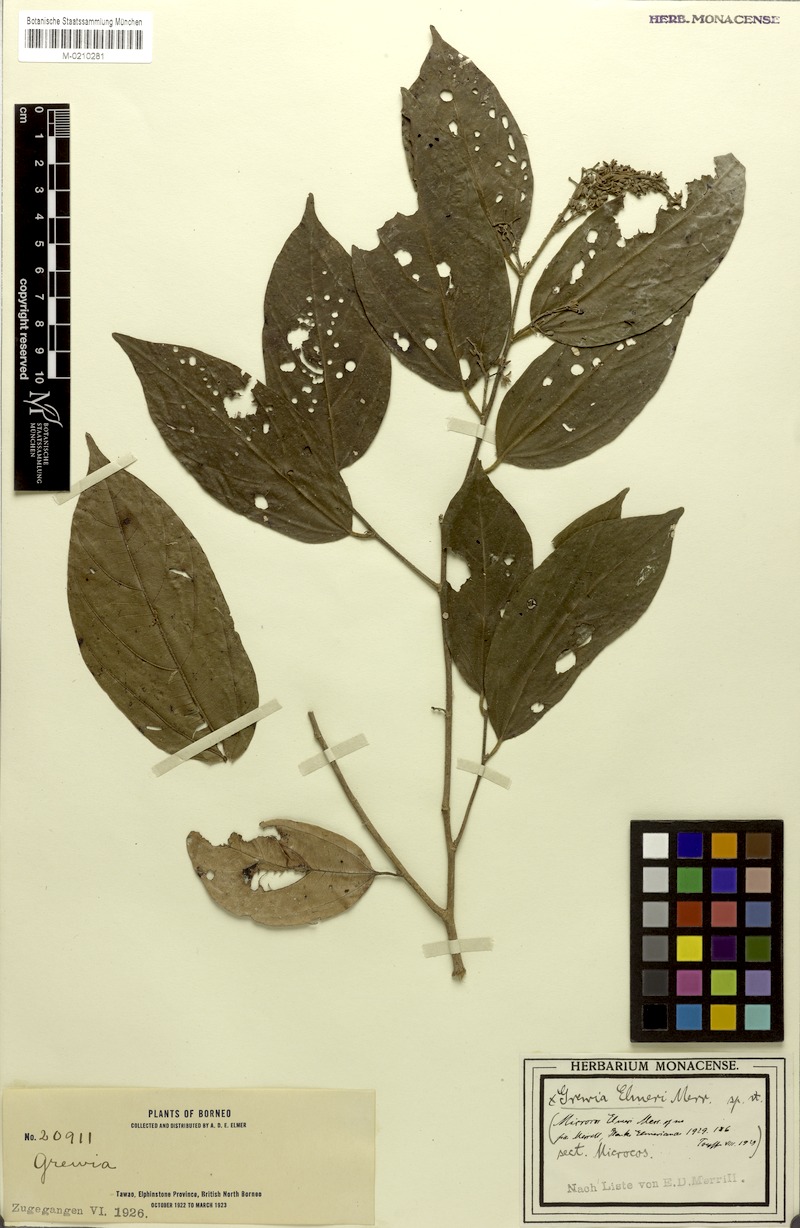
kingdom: Plantae
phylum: Tracheophyta
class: Magnoliopsida
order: Malvales
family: Malvaceae
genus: Microcos
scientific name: Microcos antidesmifolia
